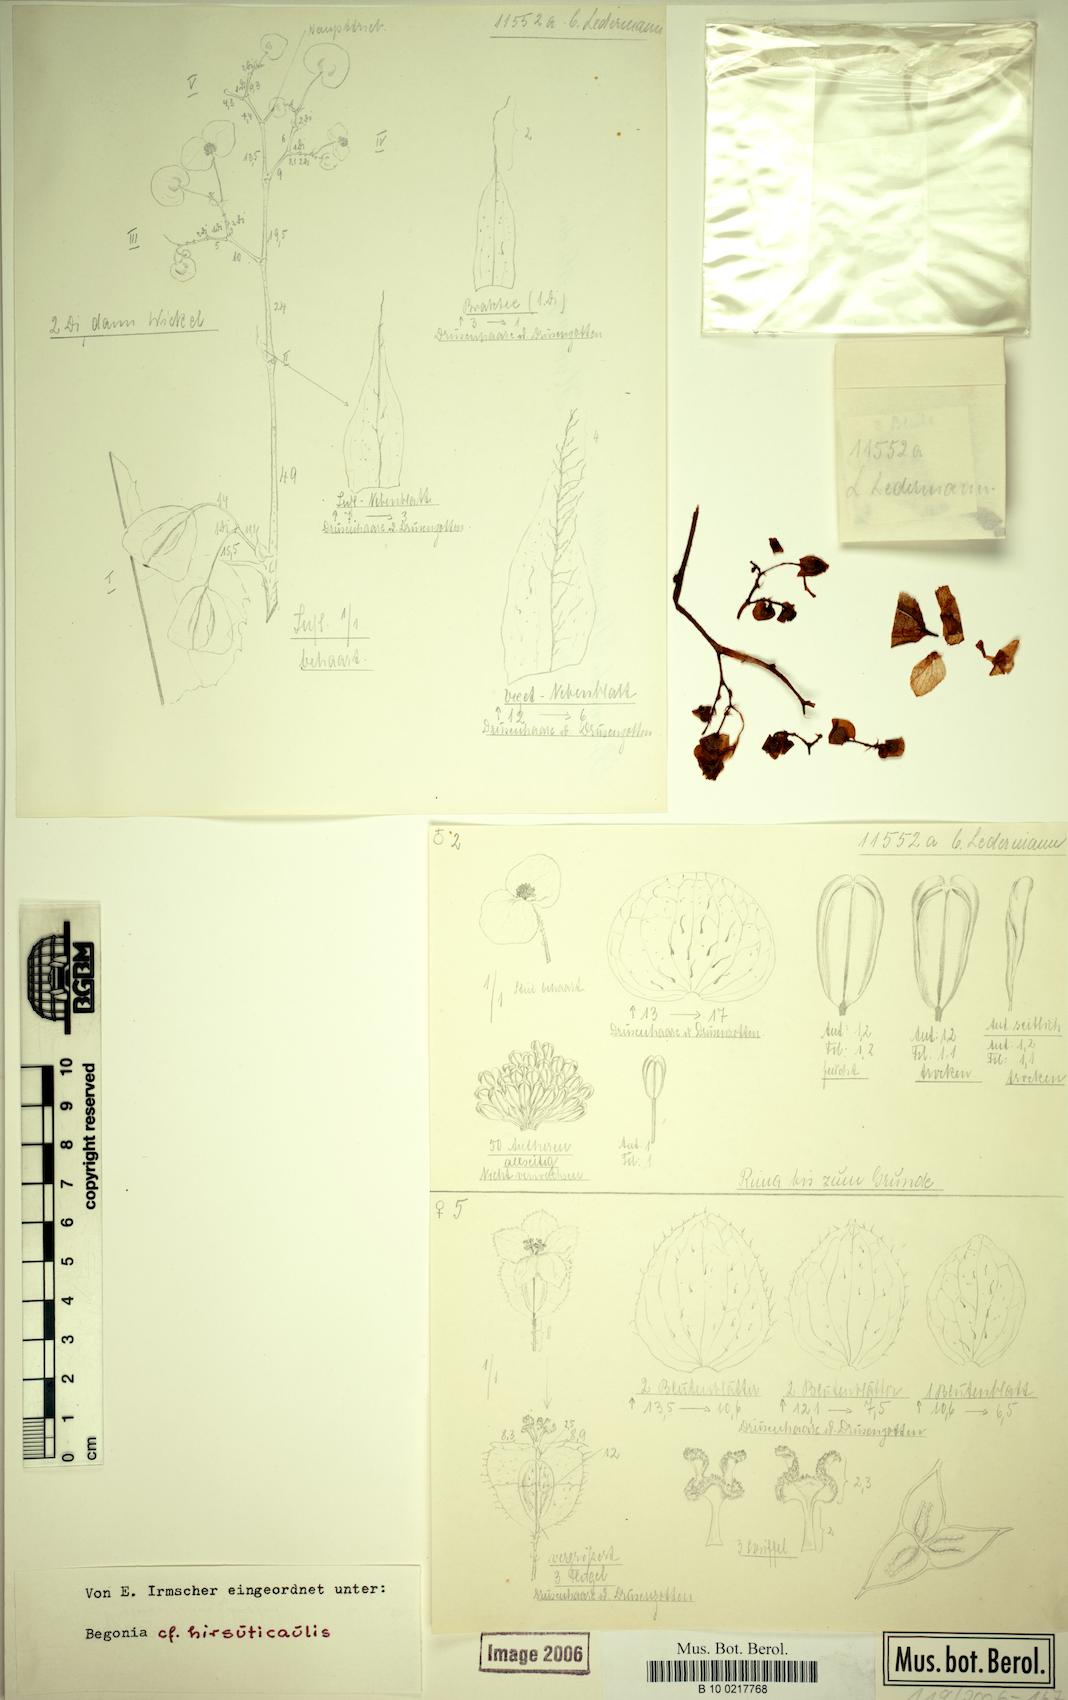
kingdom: Plantae
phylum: Tracheophyta
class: Magnoliopsida
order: Cucurbitales
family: Begoniaceae
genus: Begonia
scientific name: Begonia hirsuticaulis
